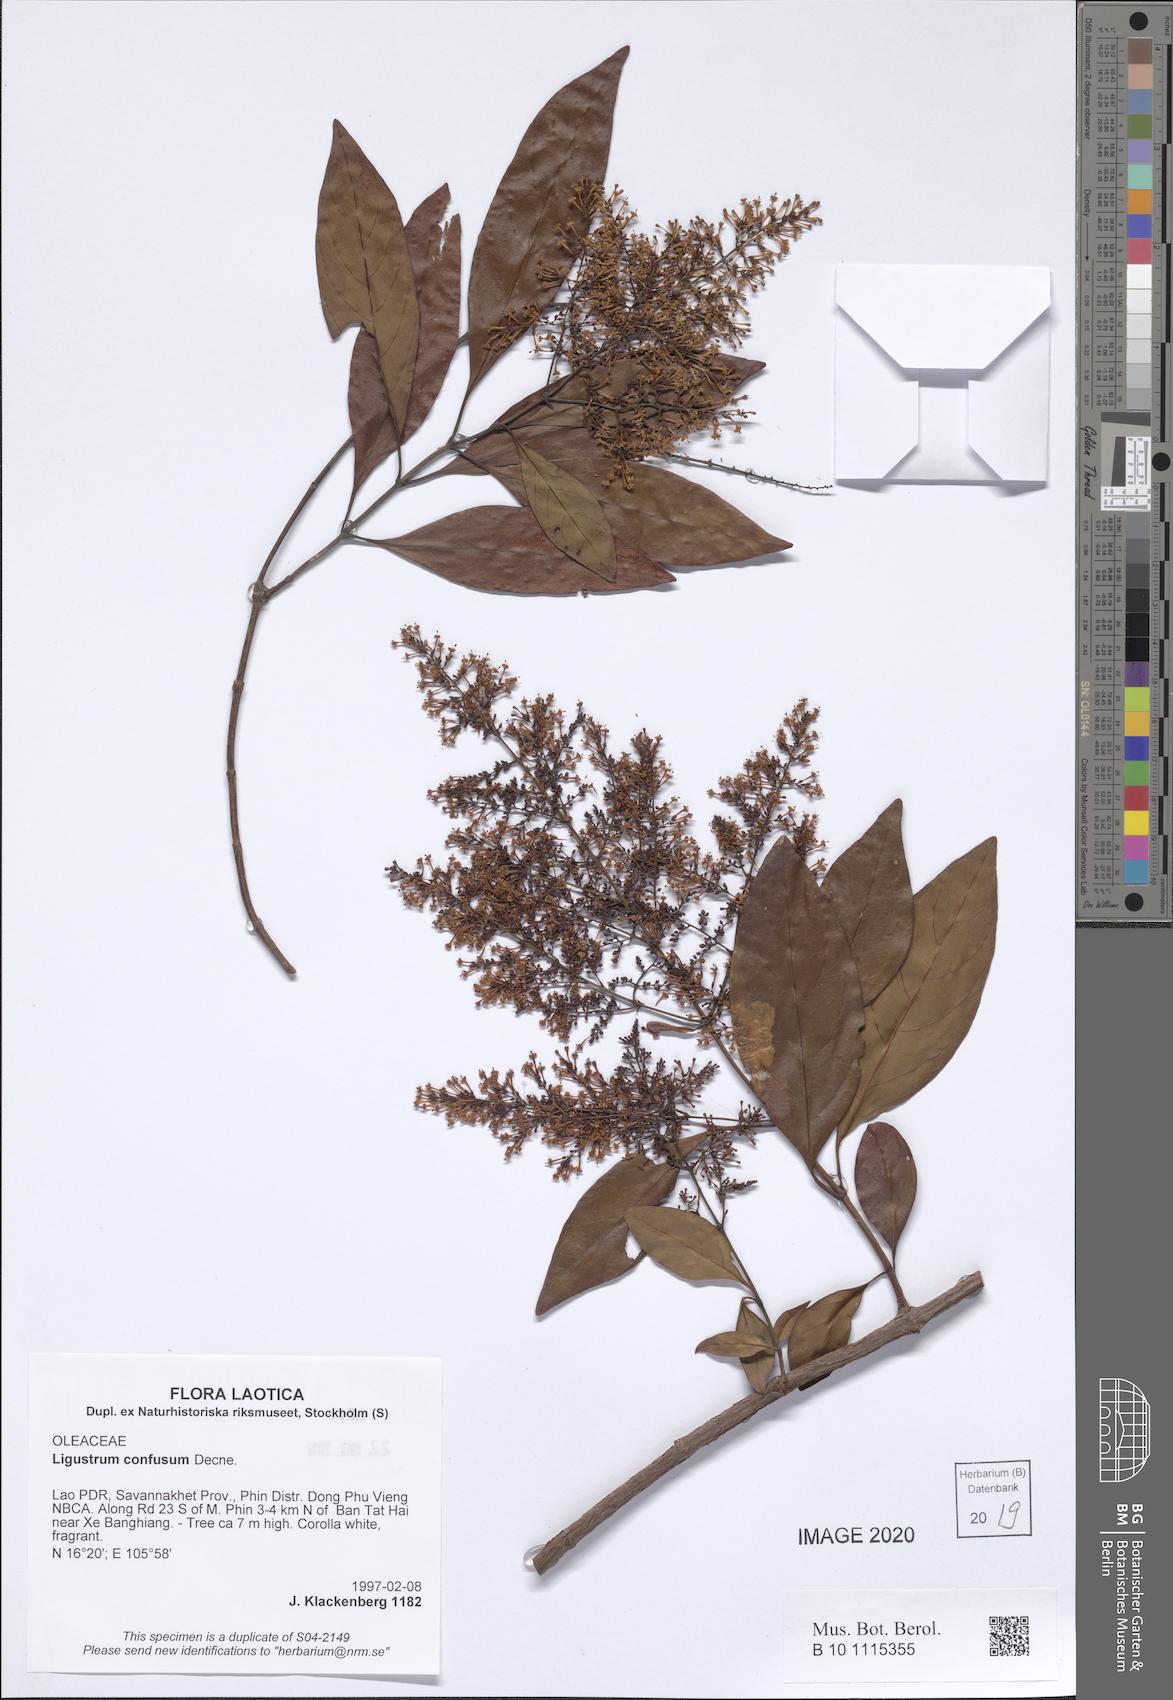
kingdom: Plantae
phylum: Tracheophyta
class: Magnoliopsida
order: Lamiales
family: Oleaceae
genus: Ligustrum
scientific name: Ligustrum confusum
